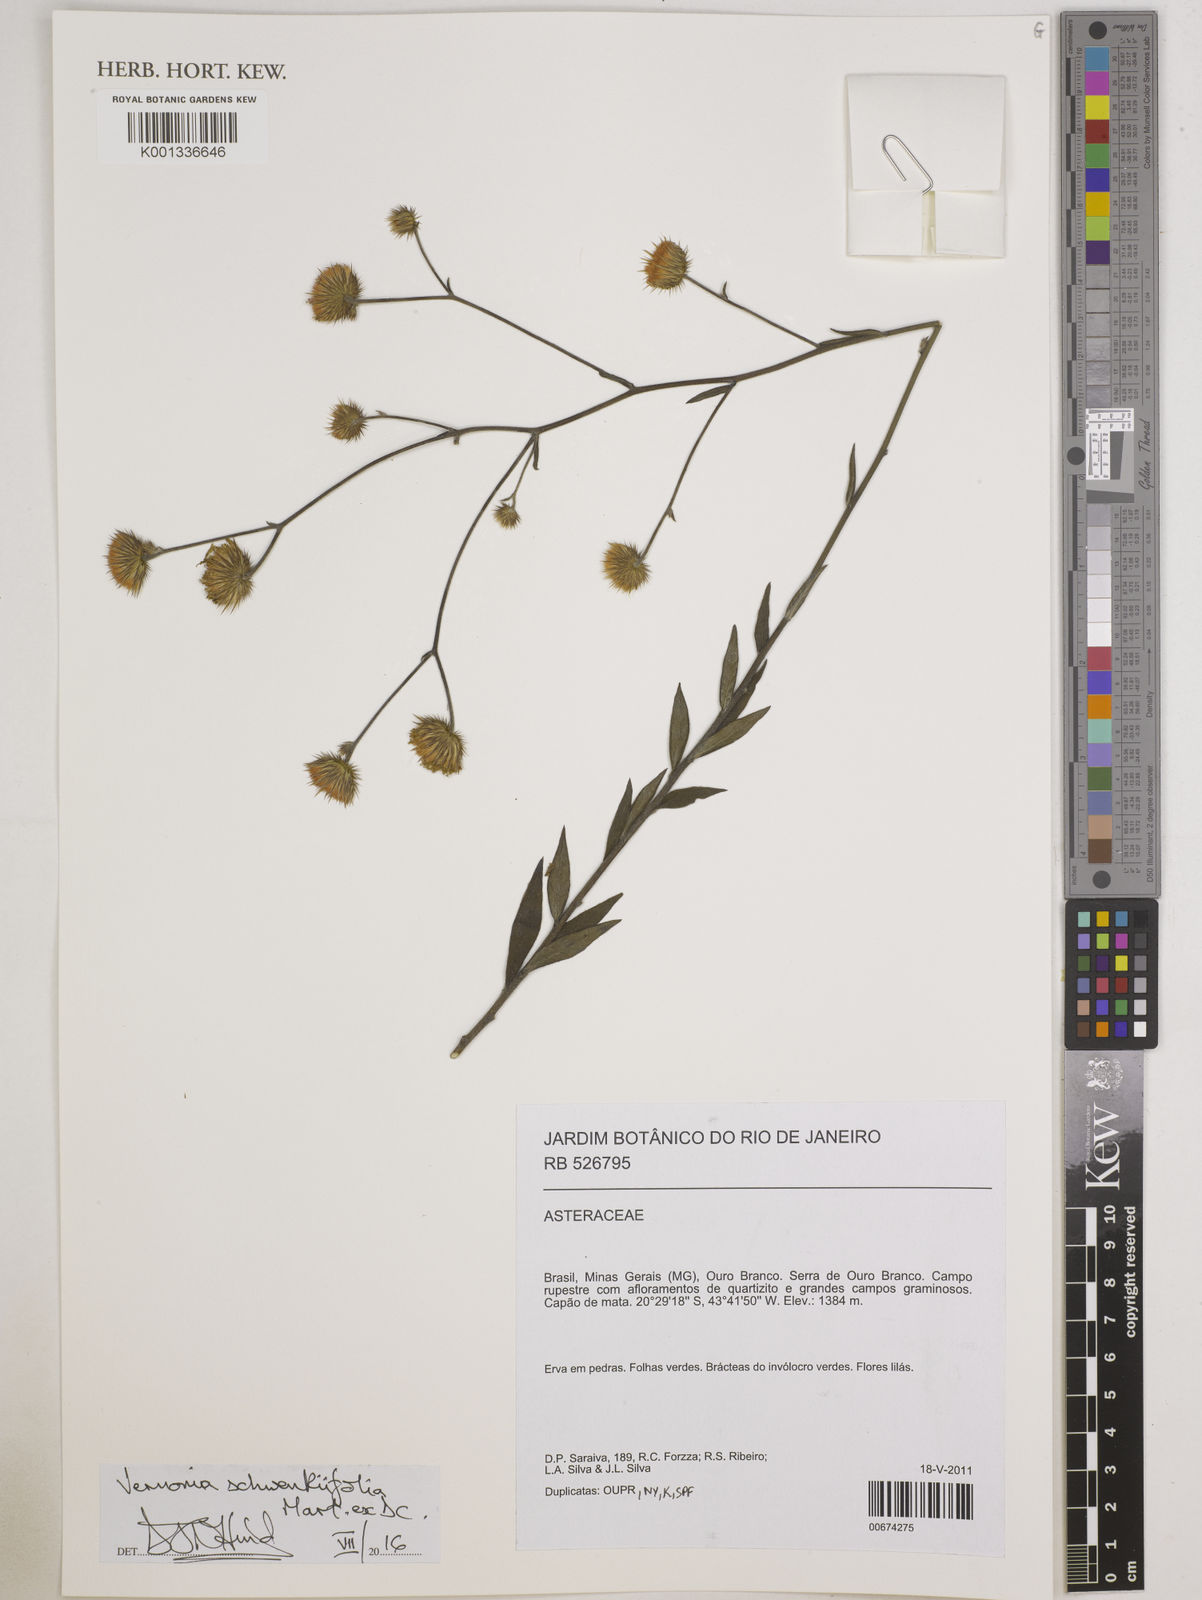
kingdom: Plantae
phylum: Tracheophyta
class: Magnoliopsida
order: Asterales
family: Asteraceae
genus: Echinocoryne
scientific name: Echinocoryne schwenkiifolia
